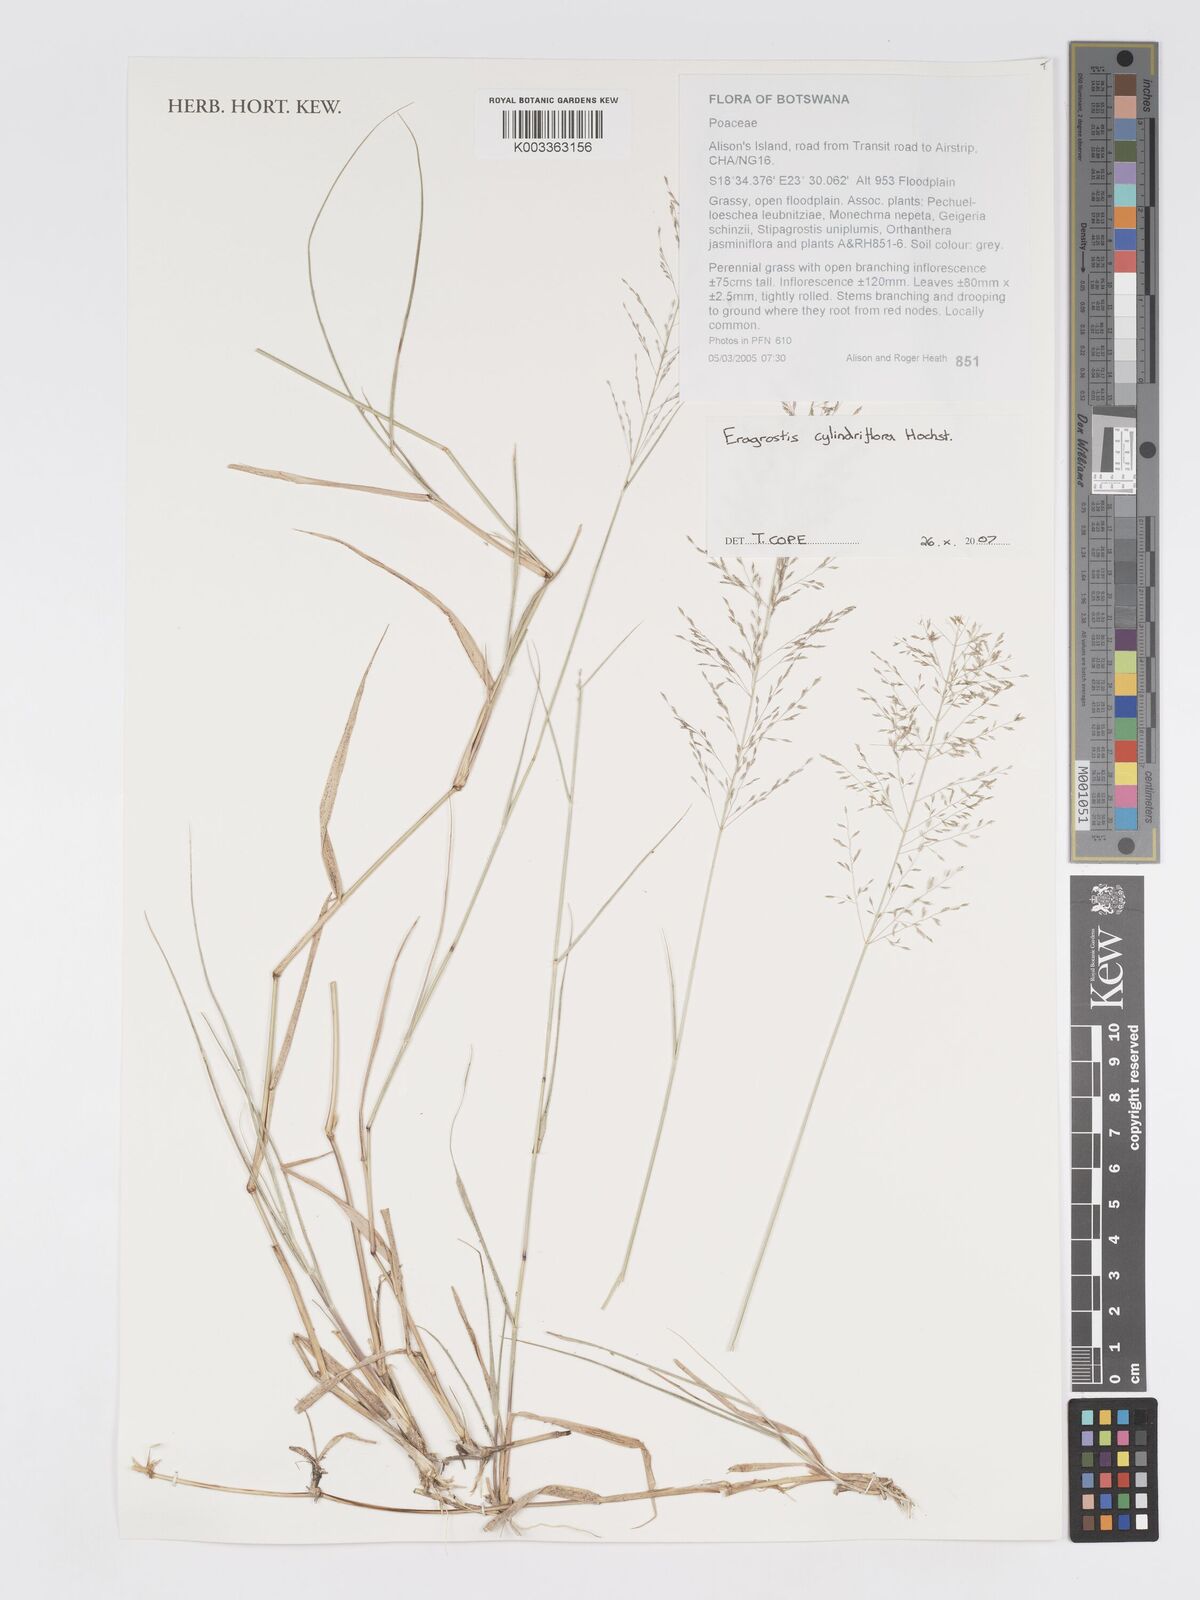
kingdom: Plantae
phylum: Tracheophyta
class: Liliopsida
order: Poales
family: Poaceae
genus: Eragrostis
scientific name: Eragrostis cylindriflora
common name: Cylinderflower lovegrass
